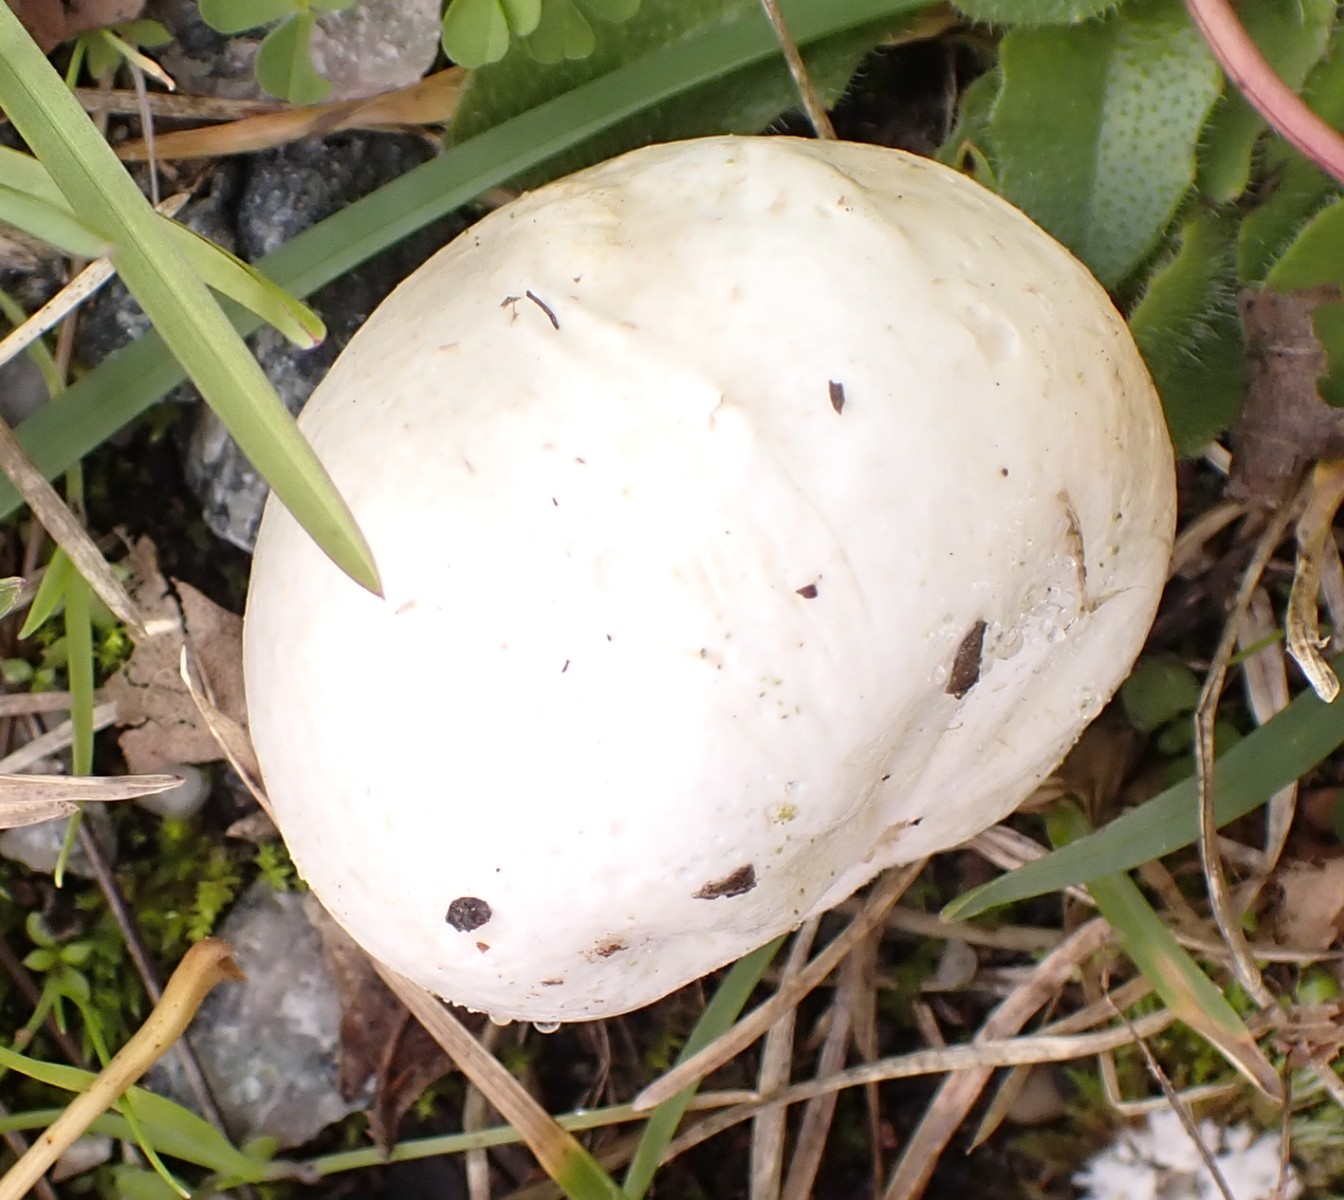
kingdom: Fungi
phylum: Basidiomycota
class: Agaricomycetes
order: Agaricales
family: Lycoperdaceae
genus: Calvatia
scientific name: Calvatia gigantea
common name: kæmpestøvbold
